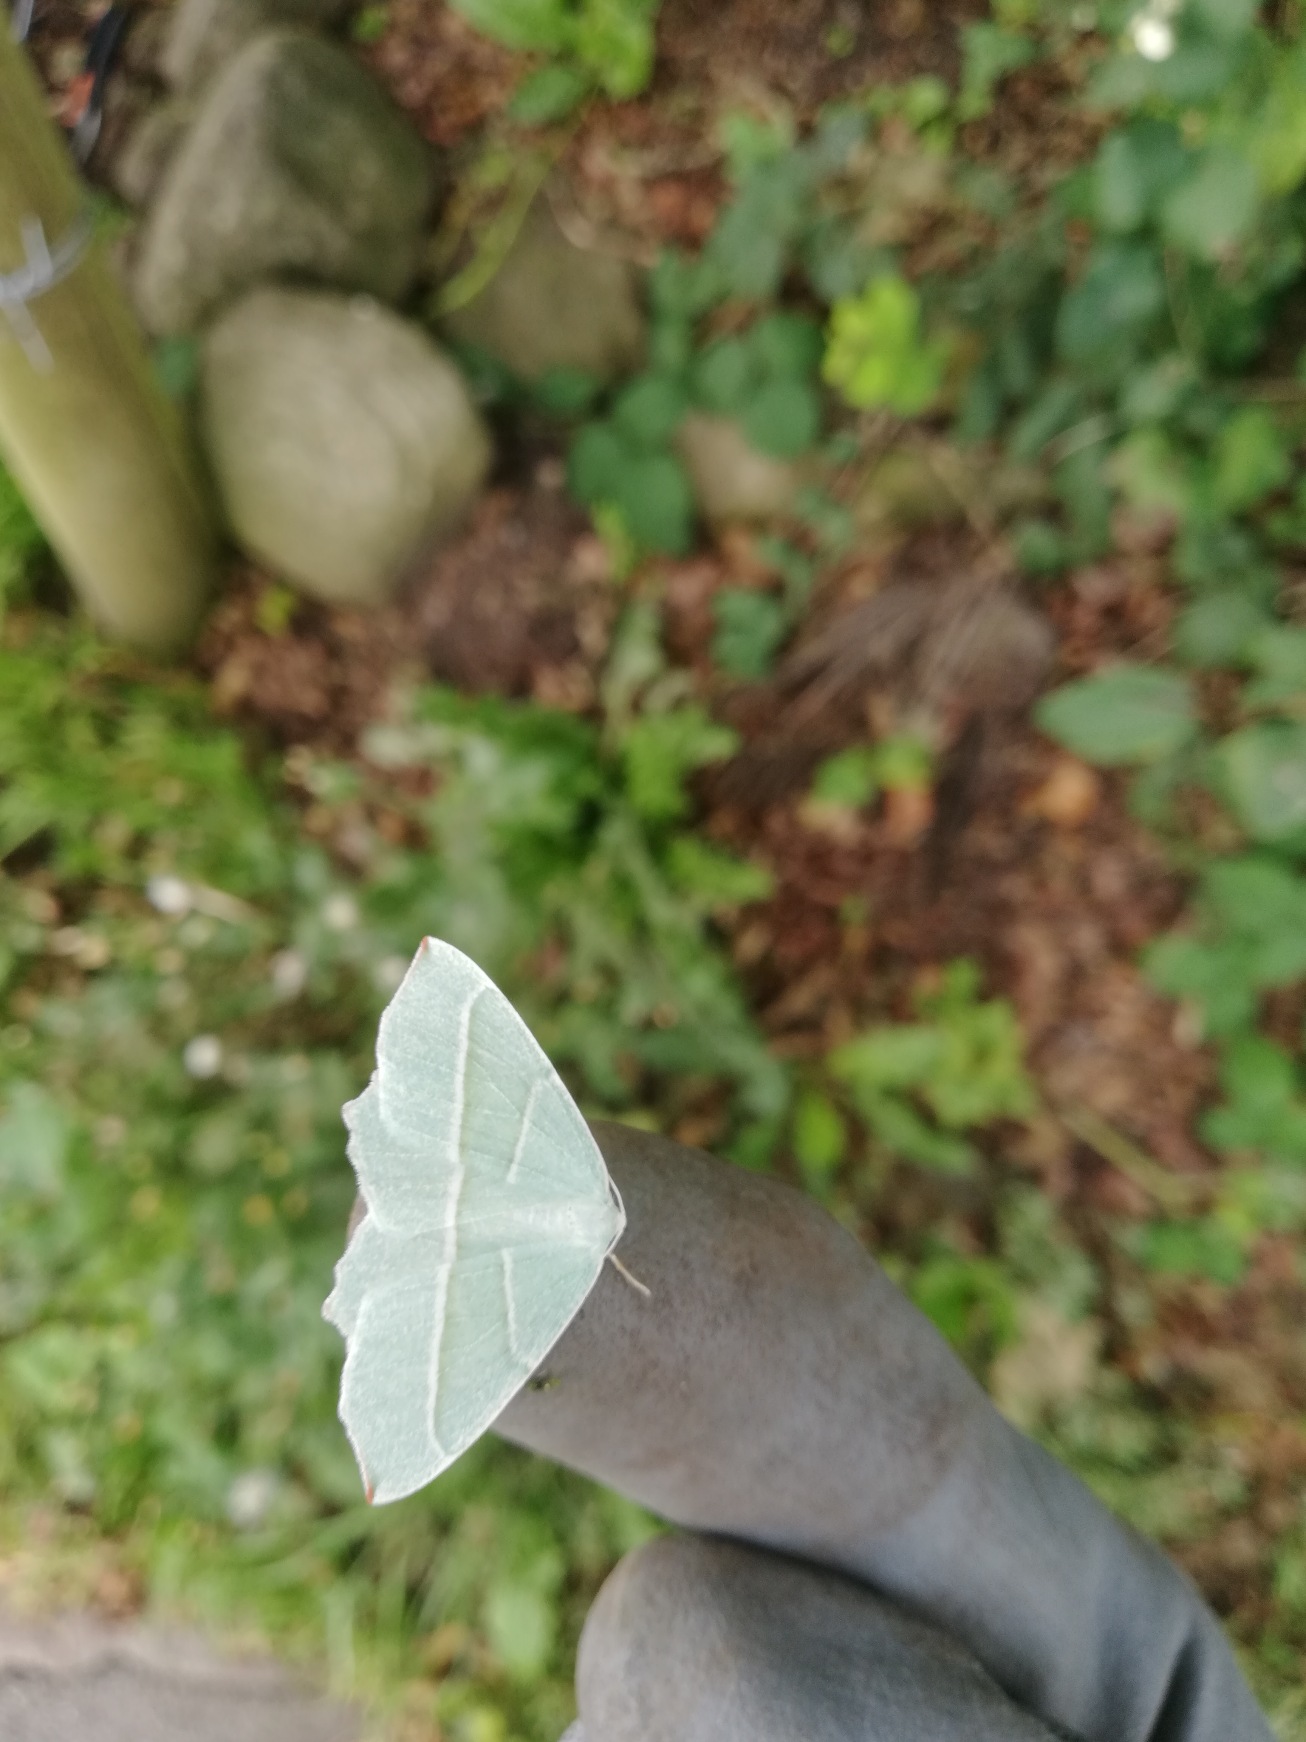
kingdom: Animalia
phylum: Arthropoda
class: Insecta
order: Lepidoptera
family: Geometridae
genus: Campaea
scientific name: Campaea margaritaria
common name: Perlemåler
